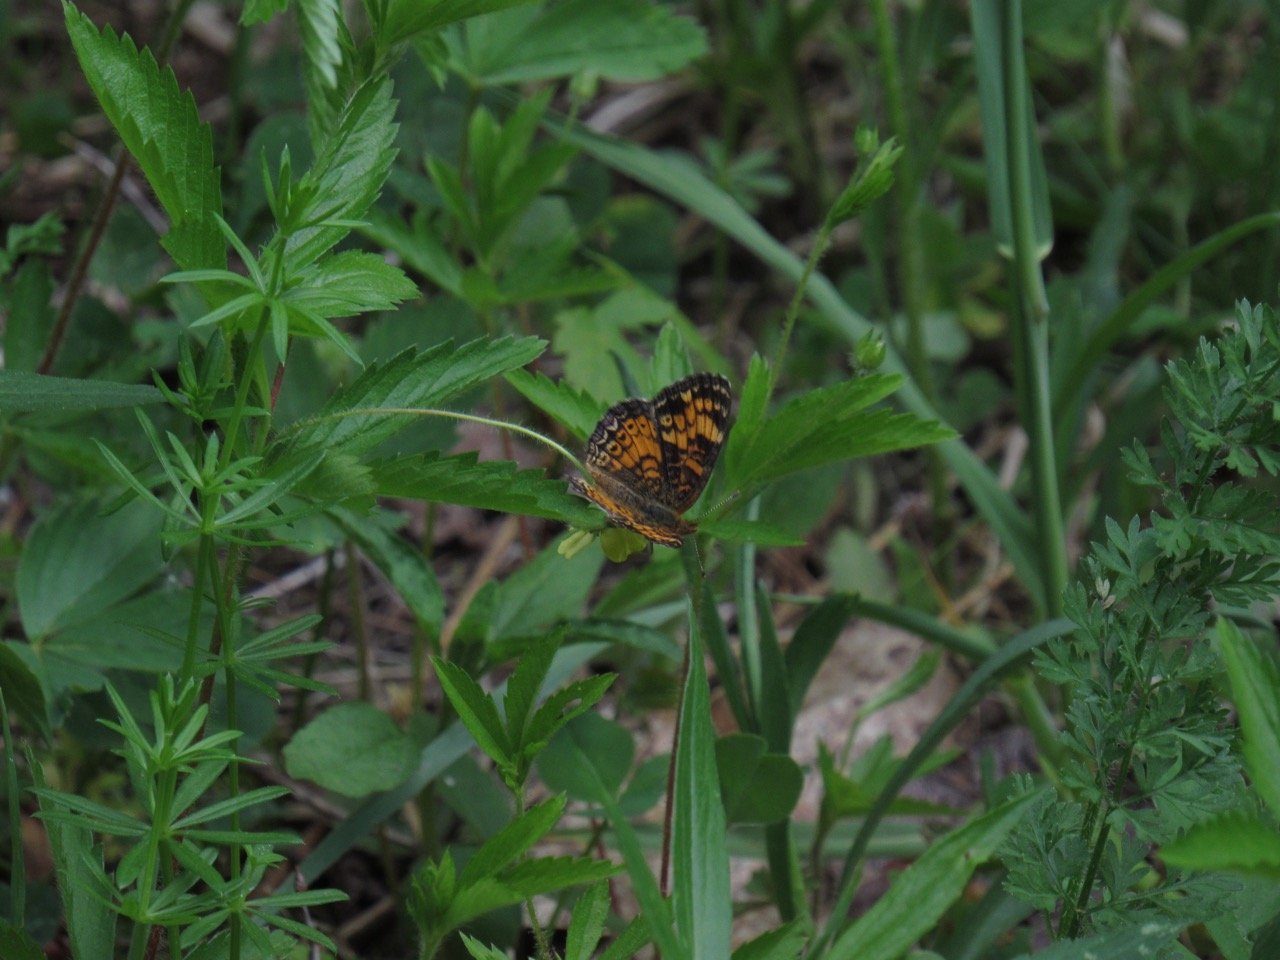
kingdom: Animalia
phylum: Arthropoda
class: Insecta
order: Lepidoptera
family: Nymphalidae
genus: Phyciodes
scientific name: Phyciodes tharos
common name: Pearl Crescent
